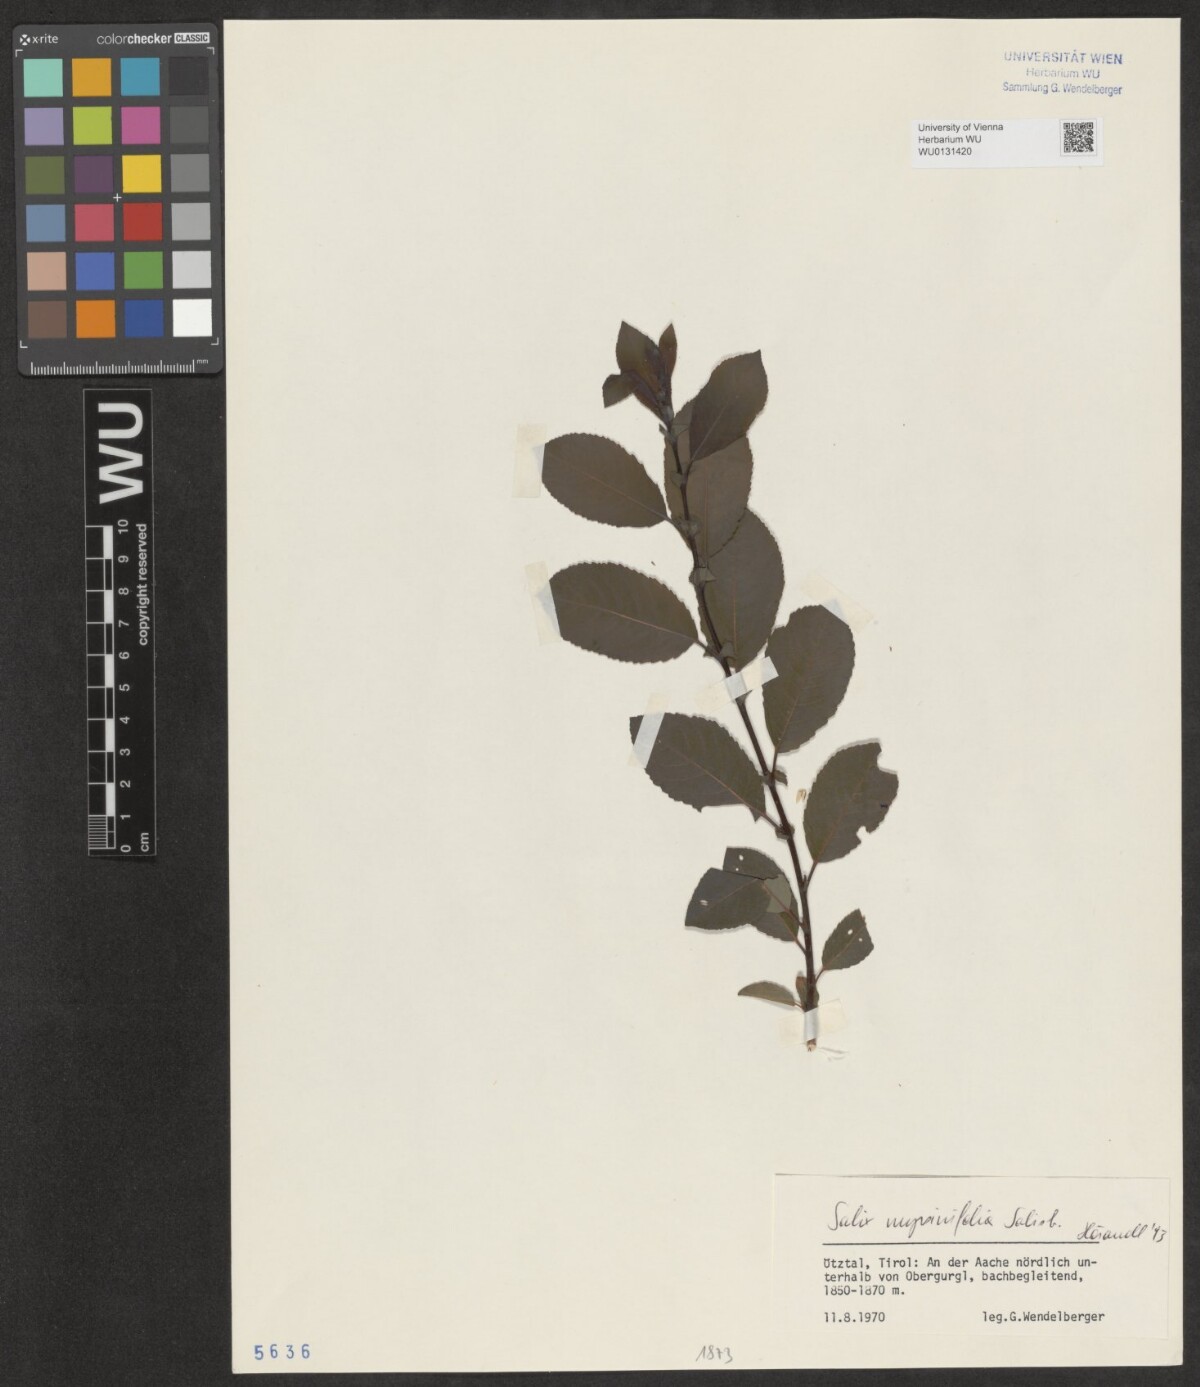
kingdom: Plantae
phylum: Tracheophyta
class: Magnoliopsida
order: Malpighiales
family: Salicaceae
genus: Salix
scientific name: Salix myrsinifolia
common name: Dark-leaved willow
